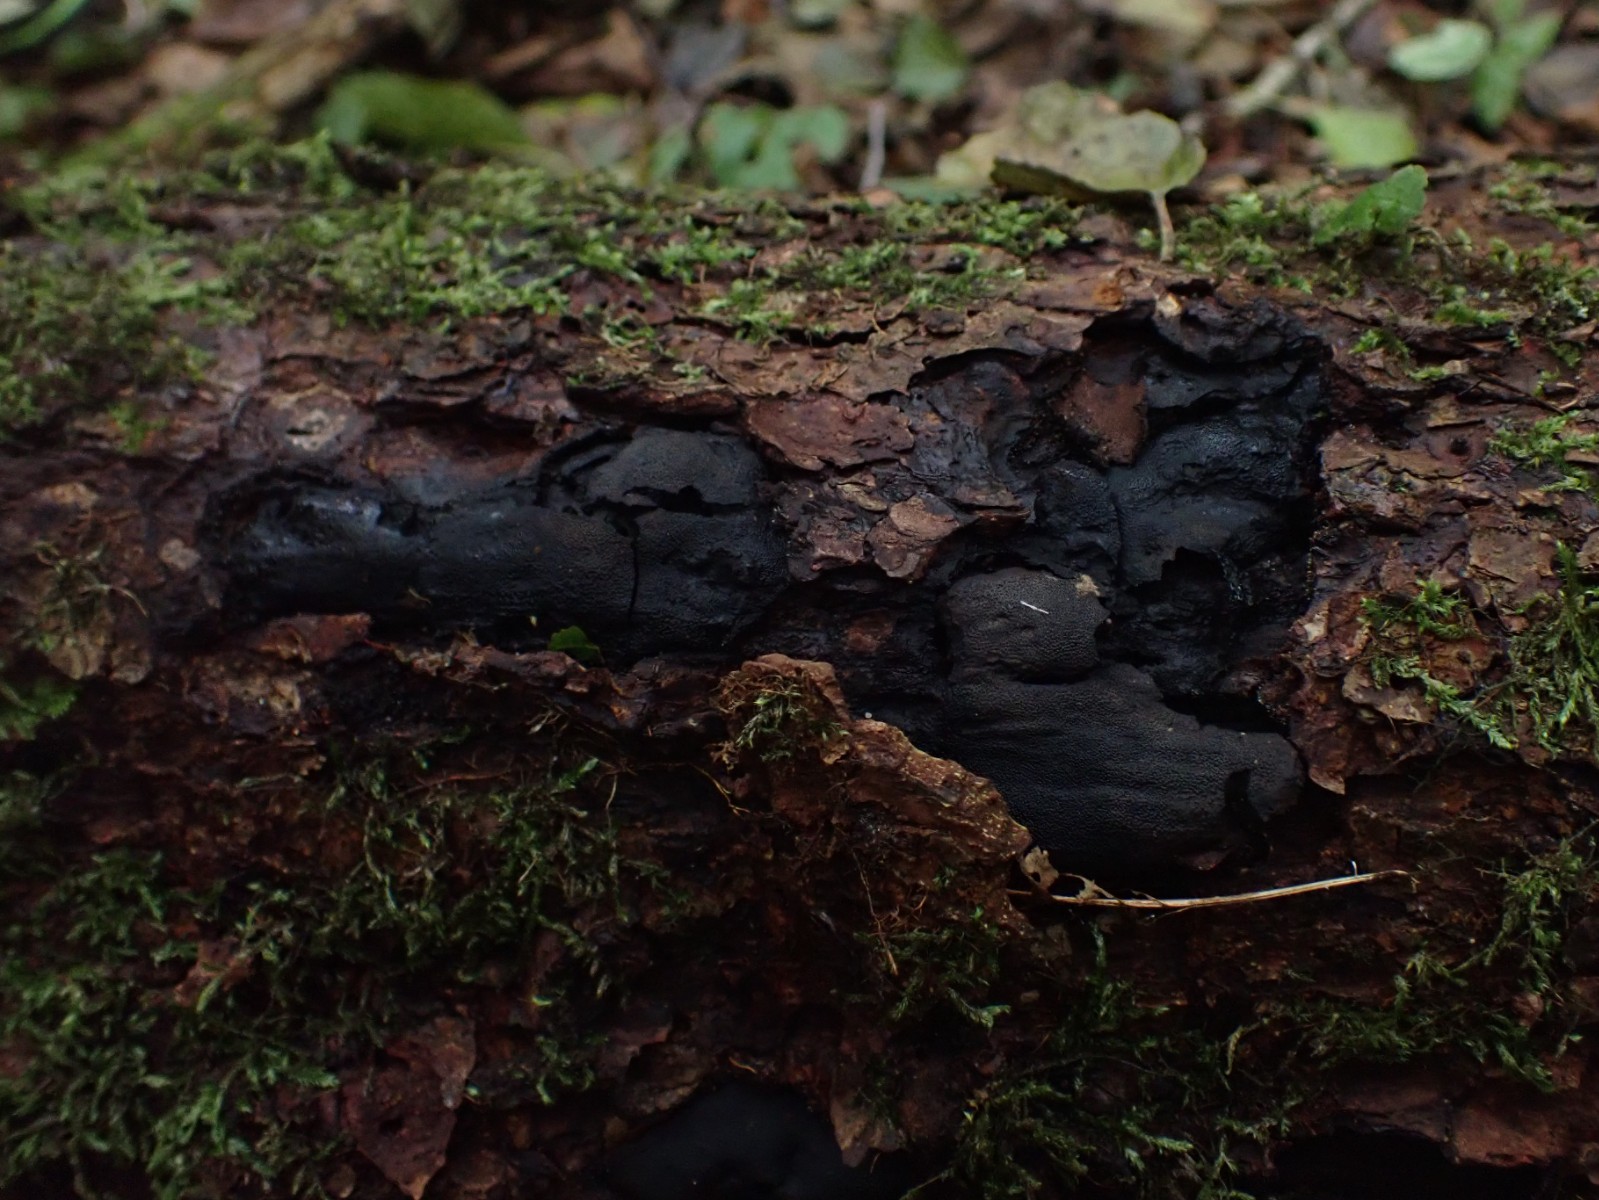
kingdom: Fungi
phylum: Ascomycota
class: Sordariomycetes
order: Boliniales
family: Boliniaceae
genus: Camarops
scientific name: Camarops polysperma
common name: elle-kulsnegl
